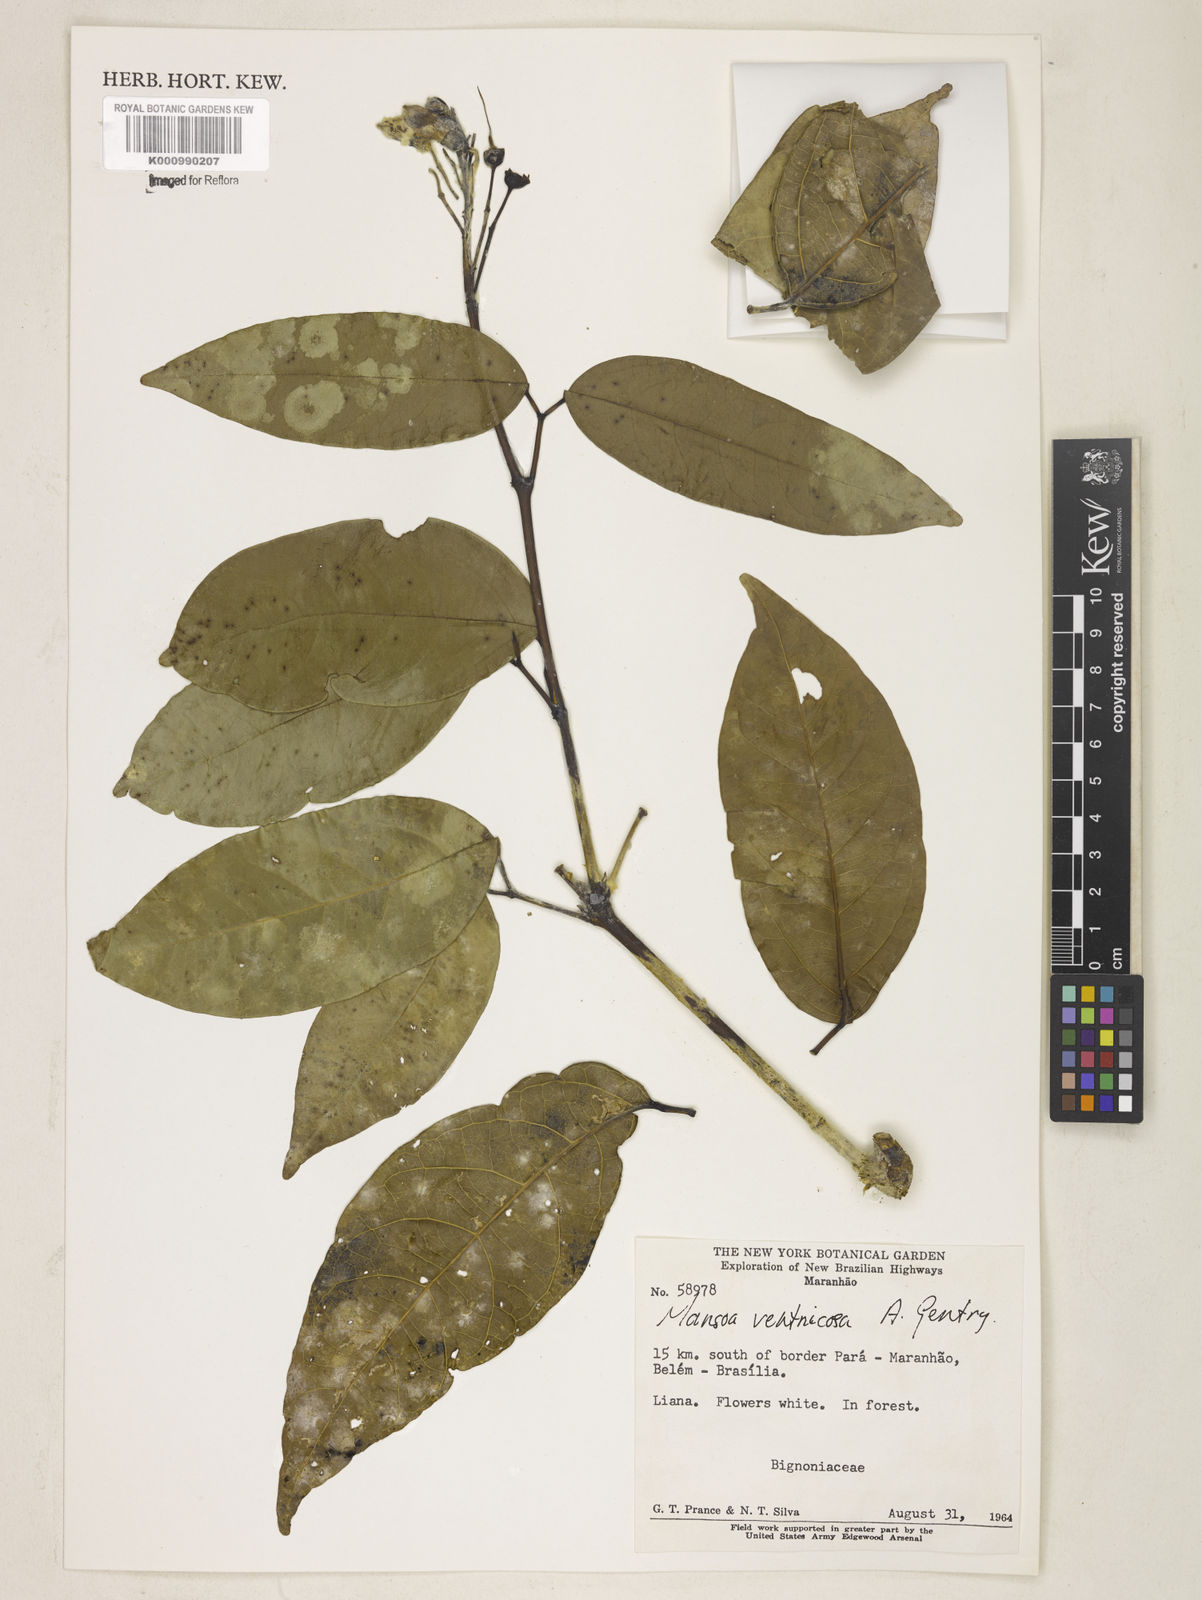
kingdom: Plantae
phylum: Tracheophyta
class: Magnoliopsida
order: Lamiales
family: Bignoniaceae
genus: Pachyptera
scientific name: Pachyptera ventricosa
